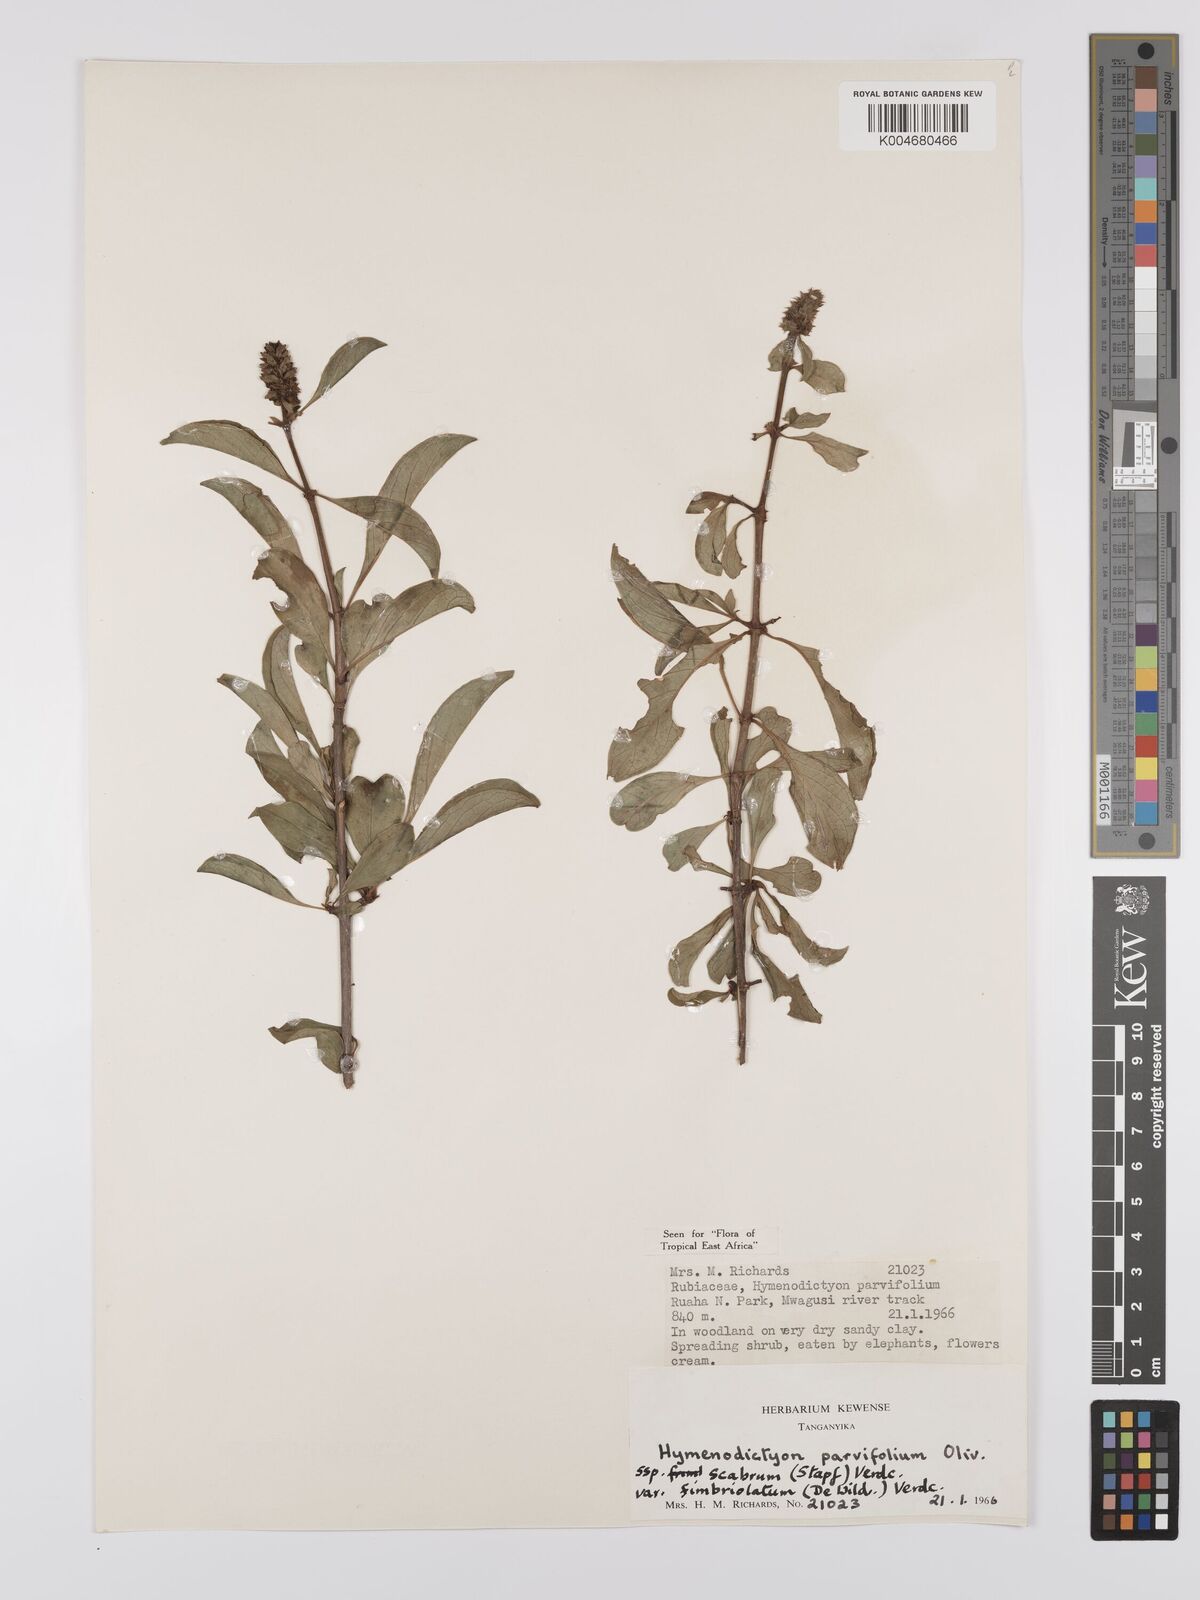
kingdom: Plantae
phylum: Tracheophyta
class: Magnoliopsida
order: Gentianales
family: Rubiaceae
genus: Hymenodictyon
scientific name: Hymenodictyon scabrum
